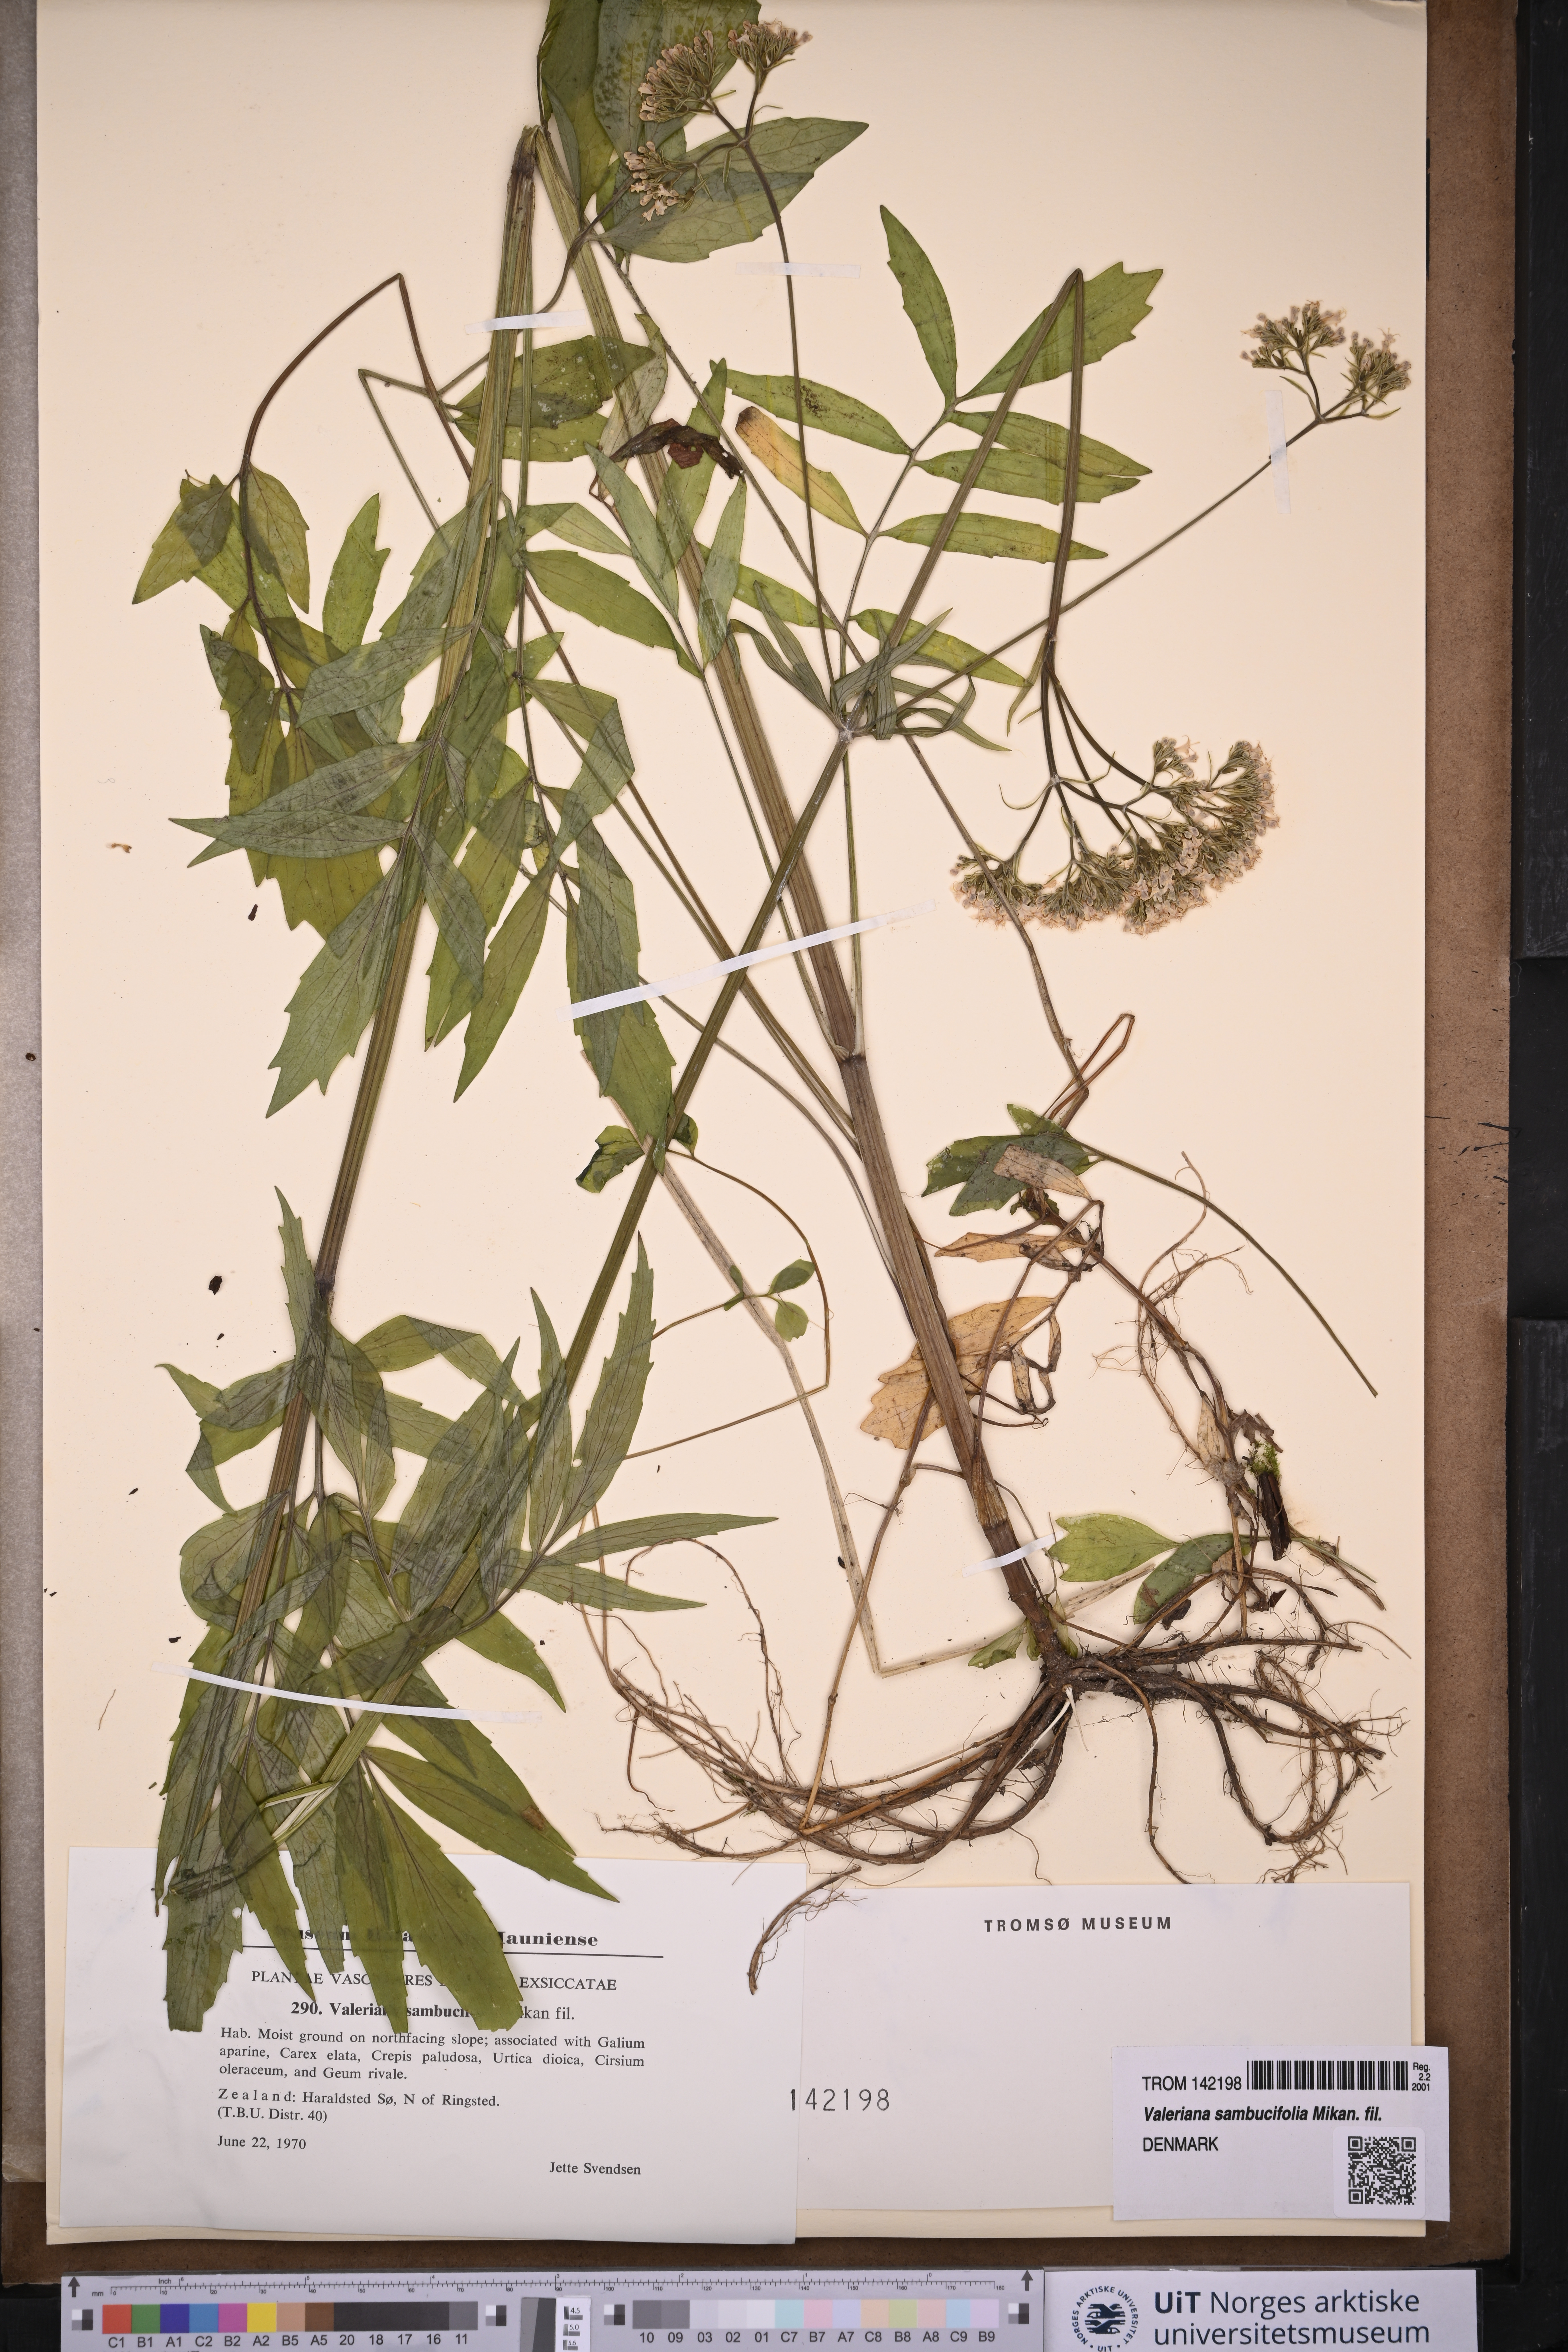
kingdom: Plantae
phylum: Tracheophyta
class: Magnoliopsida
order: Dipsacales
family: Caprifoliaceae
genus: Valeriana
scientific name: Valeriana excelsa
